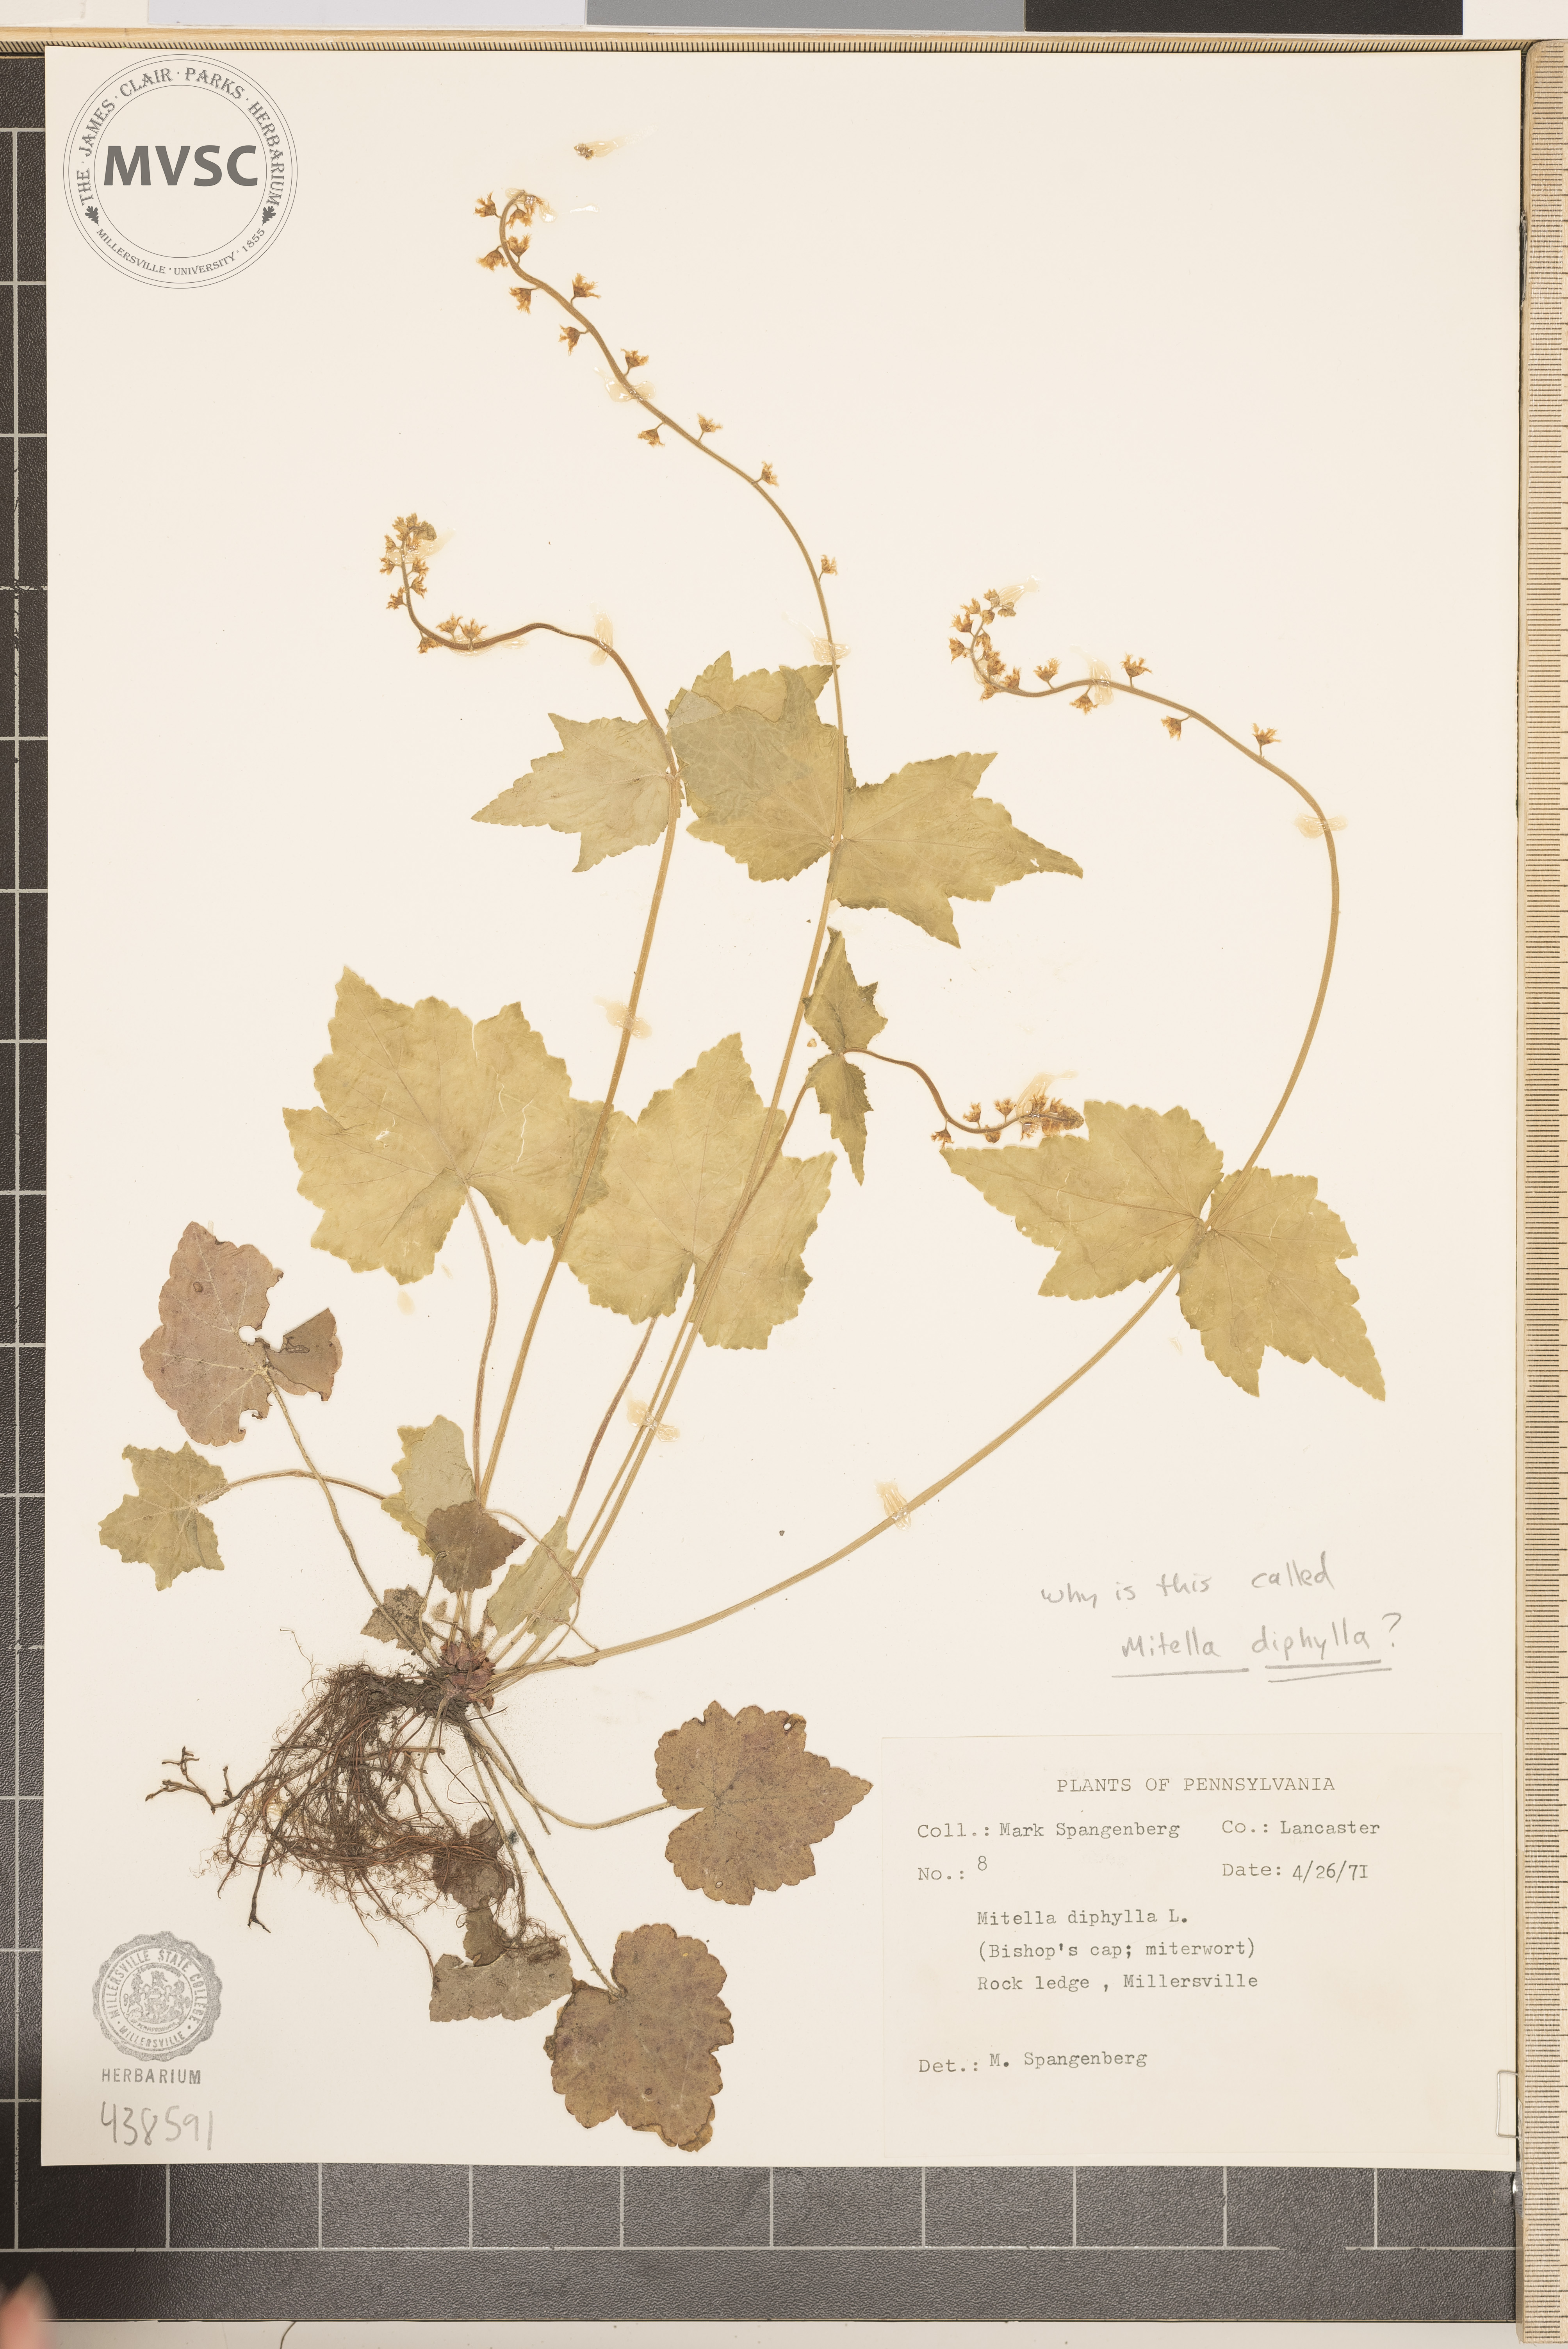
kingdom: Plantae
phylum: Tracheophyta
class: Magnoliopsida
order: Saxifragales
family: Saxifragaceae
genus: Mitella
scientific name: Mitella diphylla
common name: Coolwort
